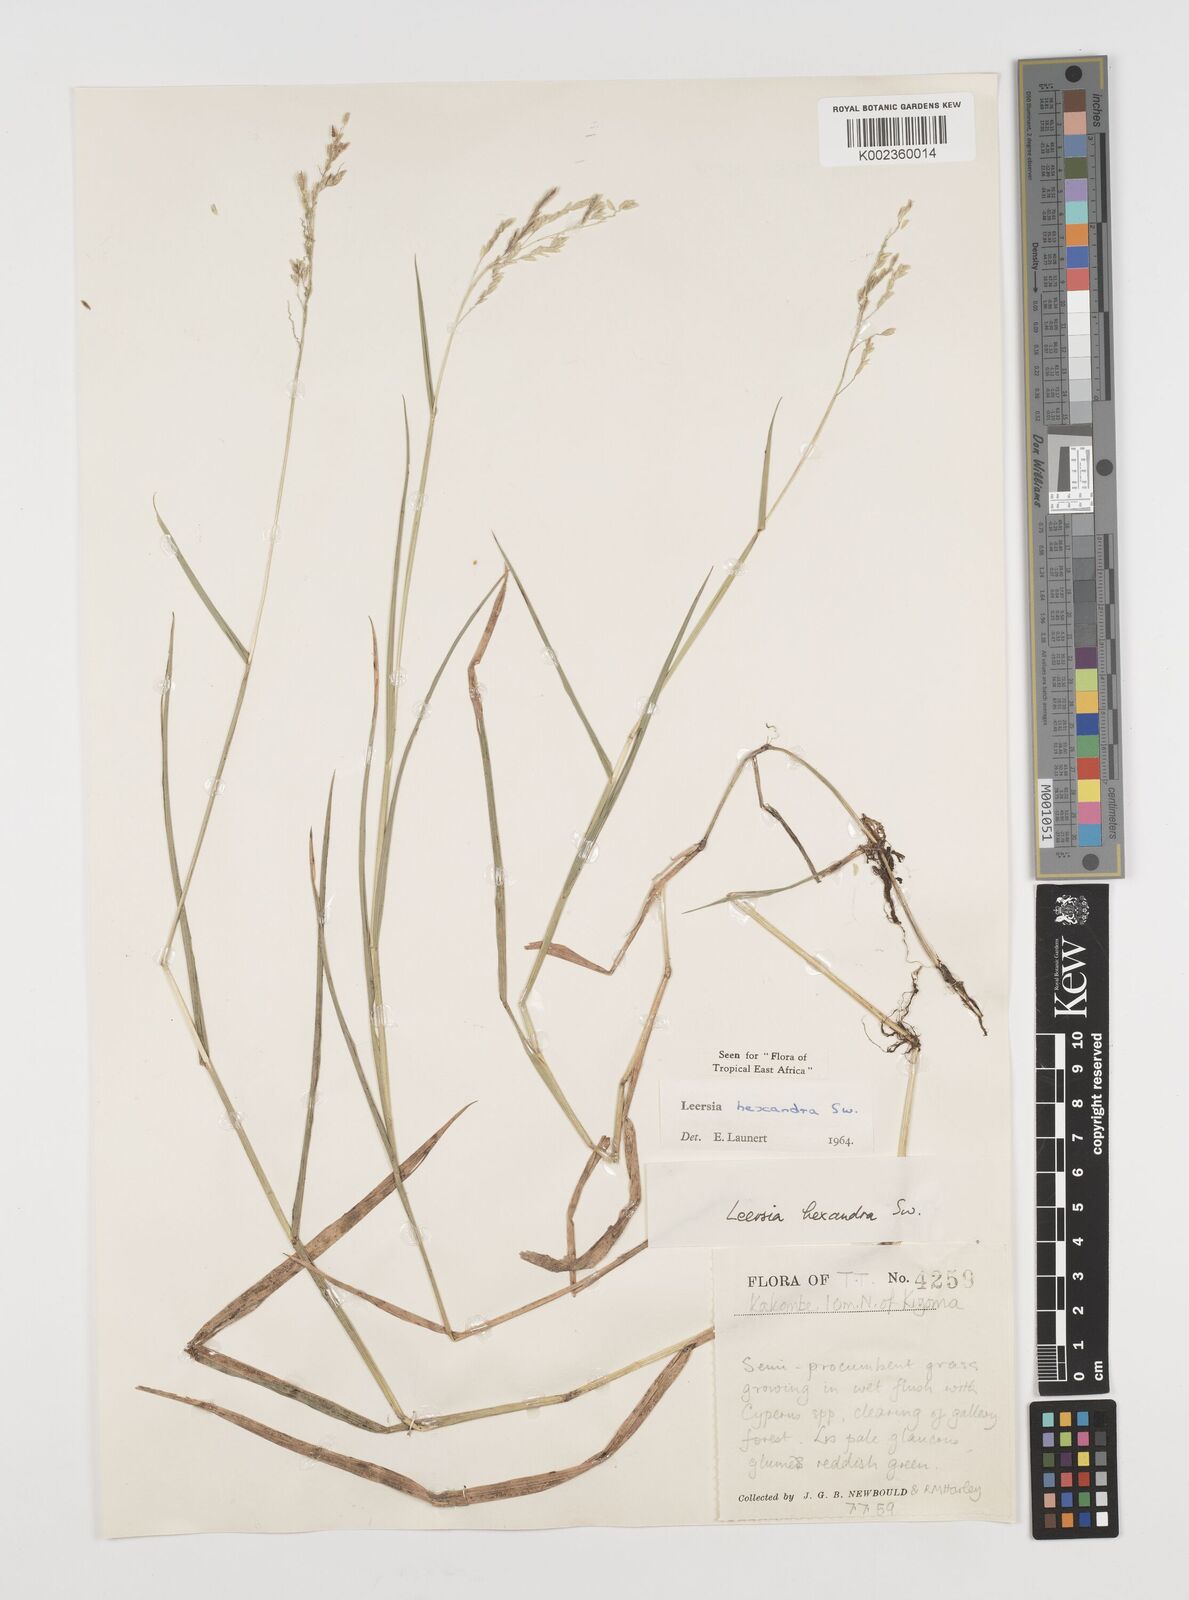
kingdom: Plantae
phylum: Tracheophyta
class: Liliopsida
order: Poales
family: Poaceae
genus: Leersia
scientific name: Leersia hexandra
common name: Southern cut grass
